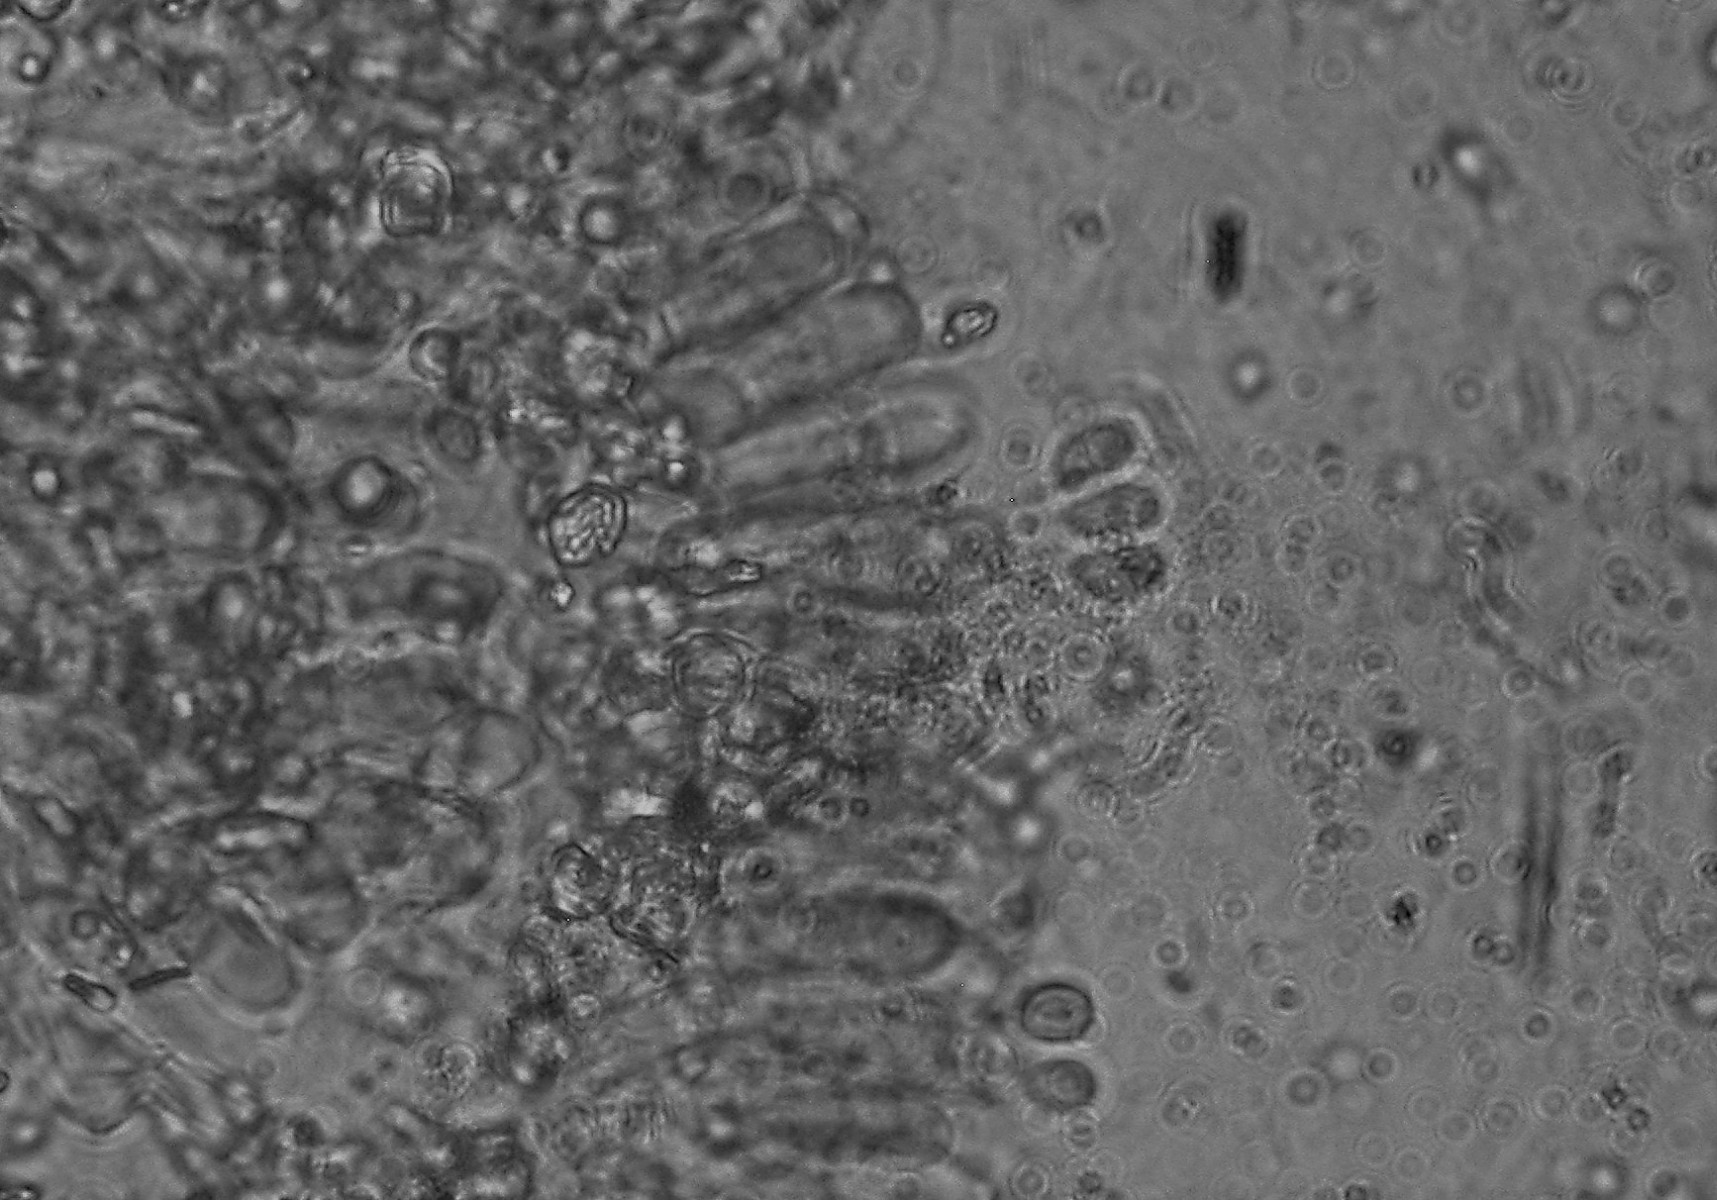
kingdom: Fungi
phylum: Basidiomycota
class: Agaricomycetes
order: Atheliales
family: Atheliaceae
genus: Athelia
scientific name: Athelia decipiens
